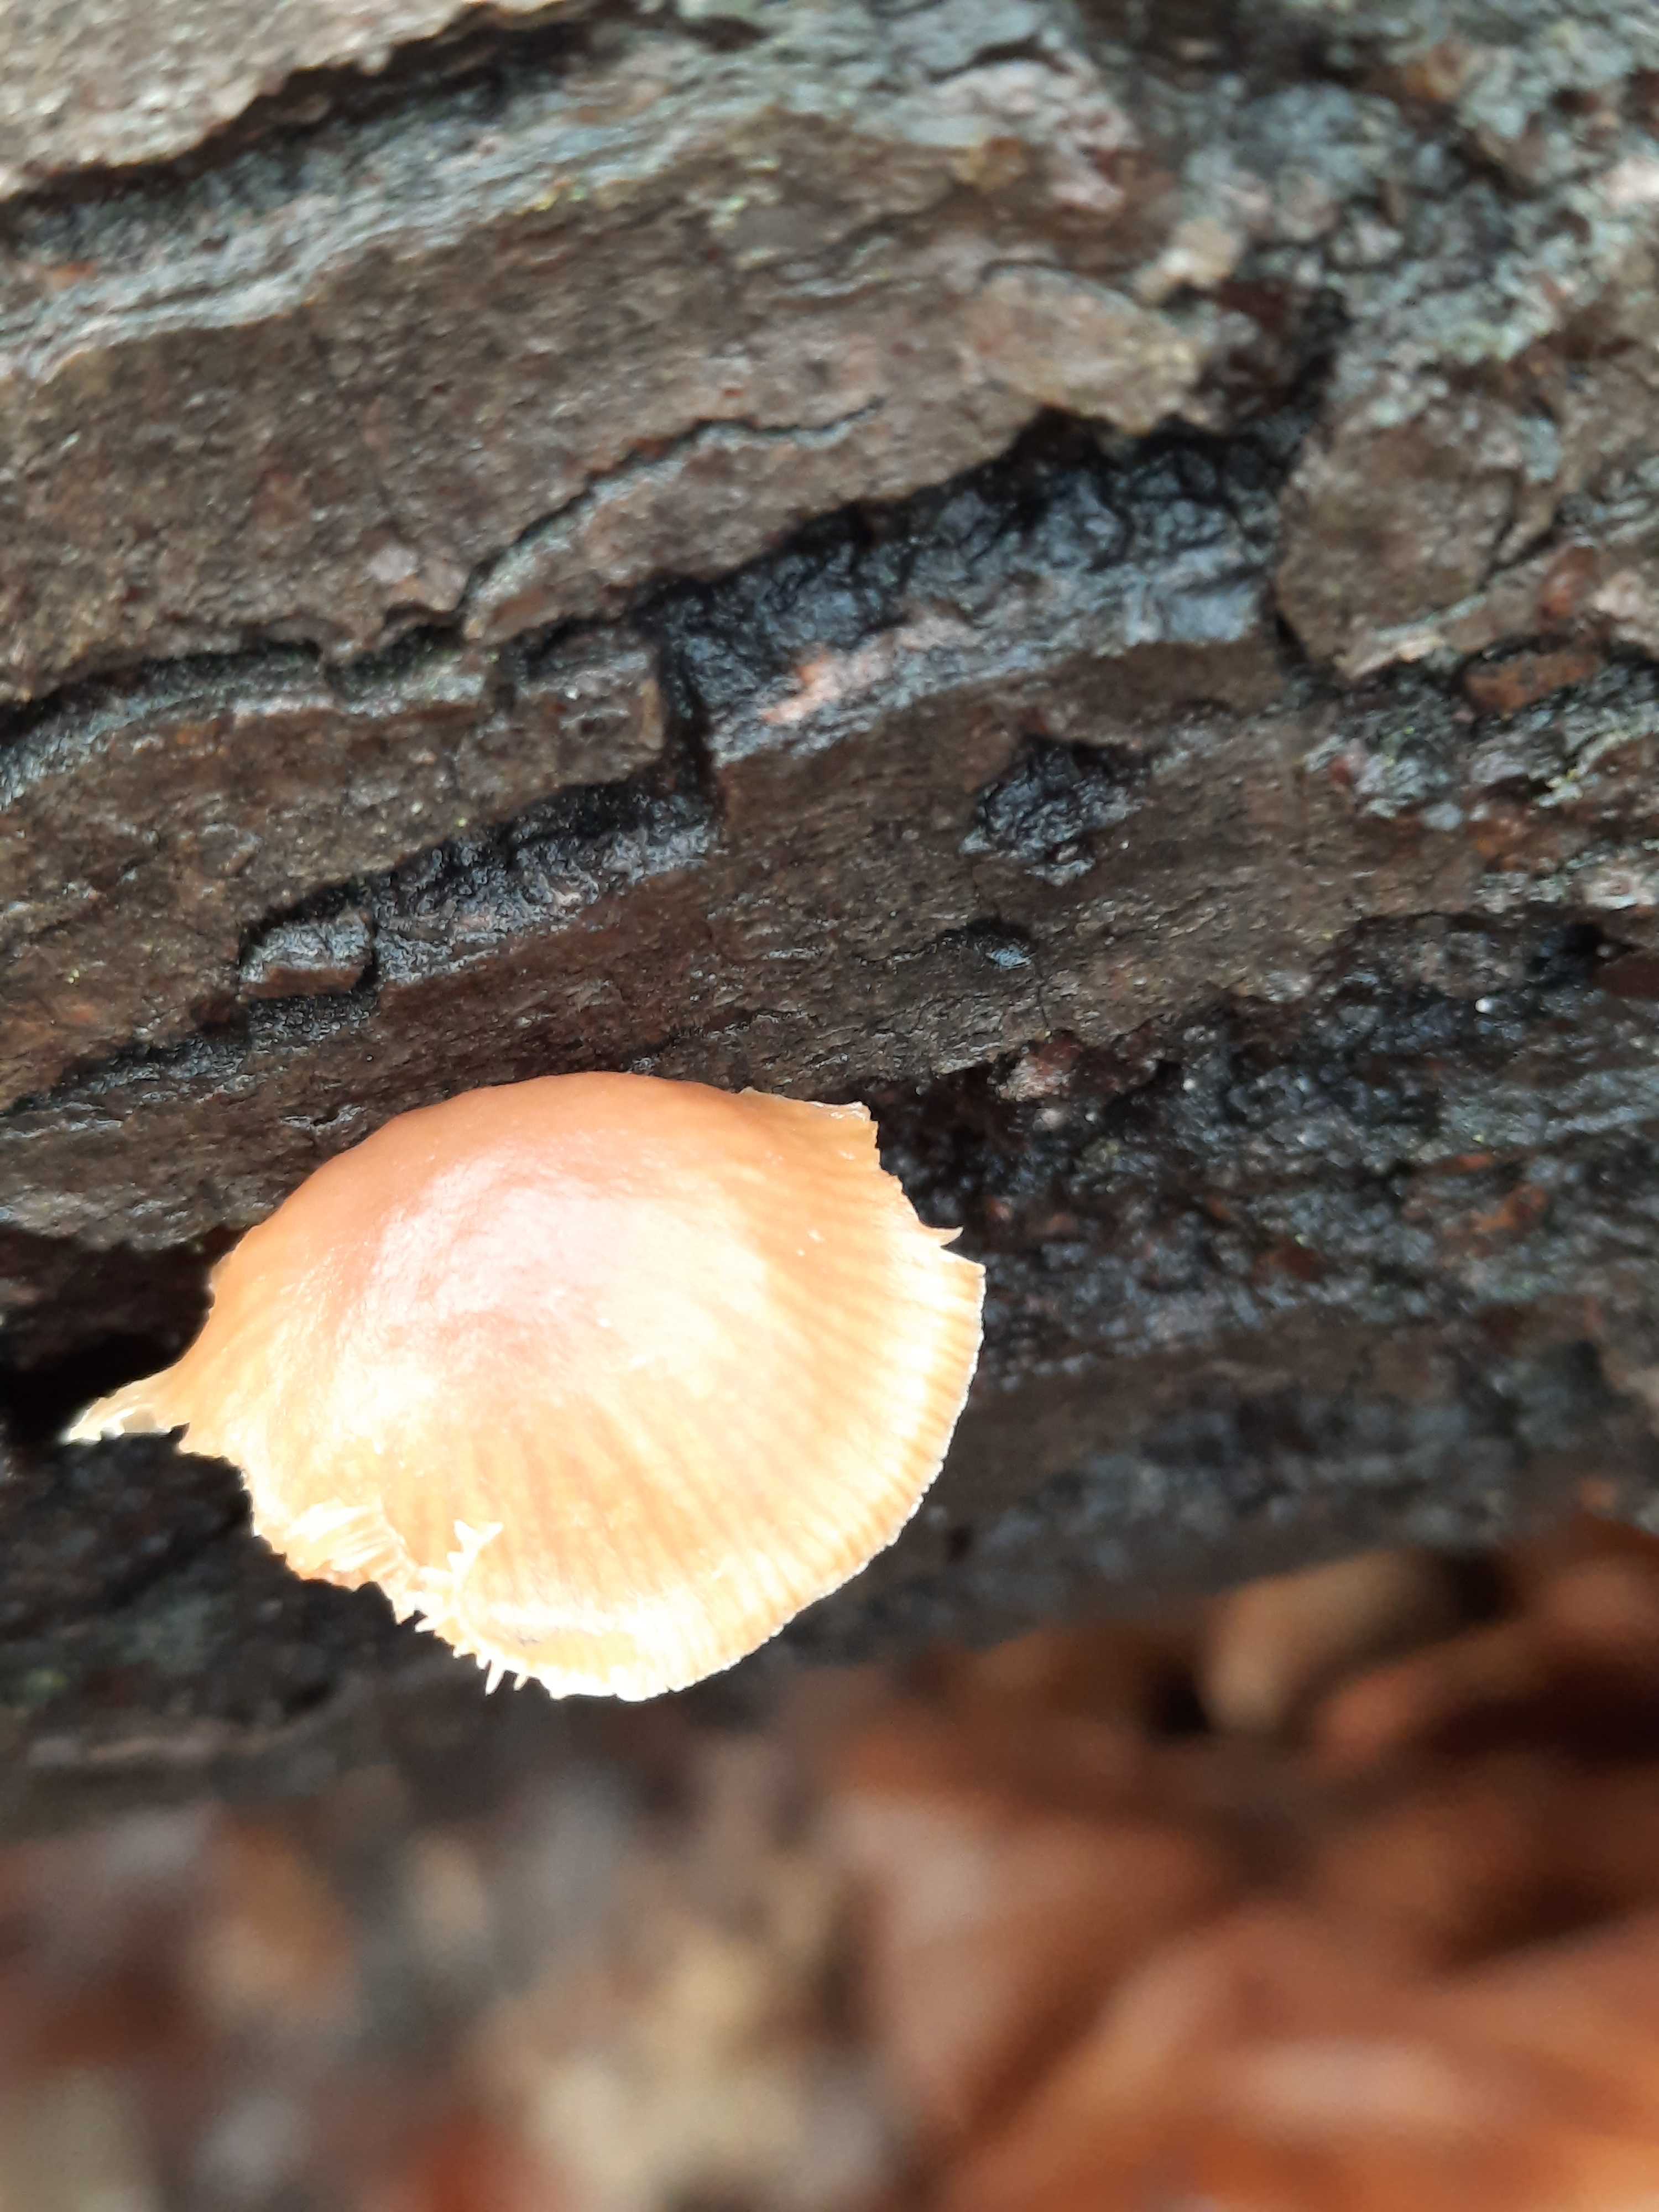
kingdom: Fungi
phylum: Basidiomycota
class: Agaricomycetes
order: Agaricales
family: Tubariaceae
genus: Tubaria
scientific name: Tubaria furfuracea
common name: kliddet fnughat
